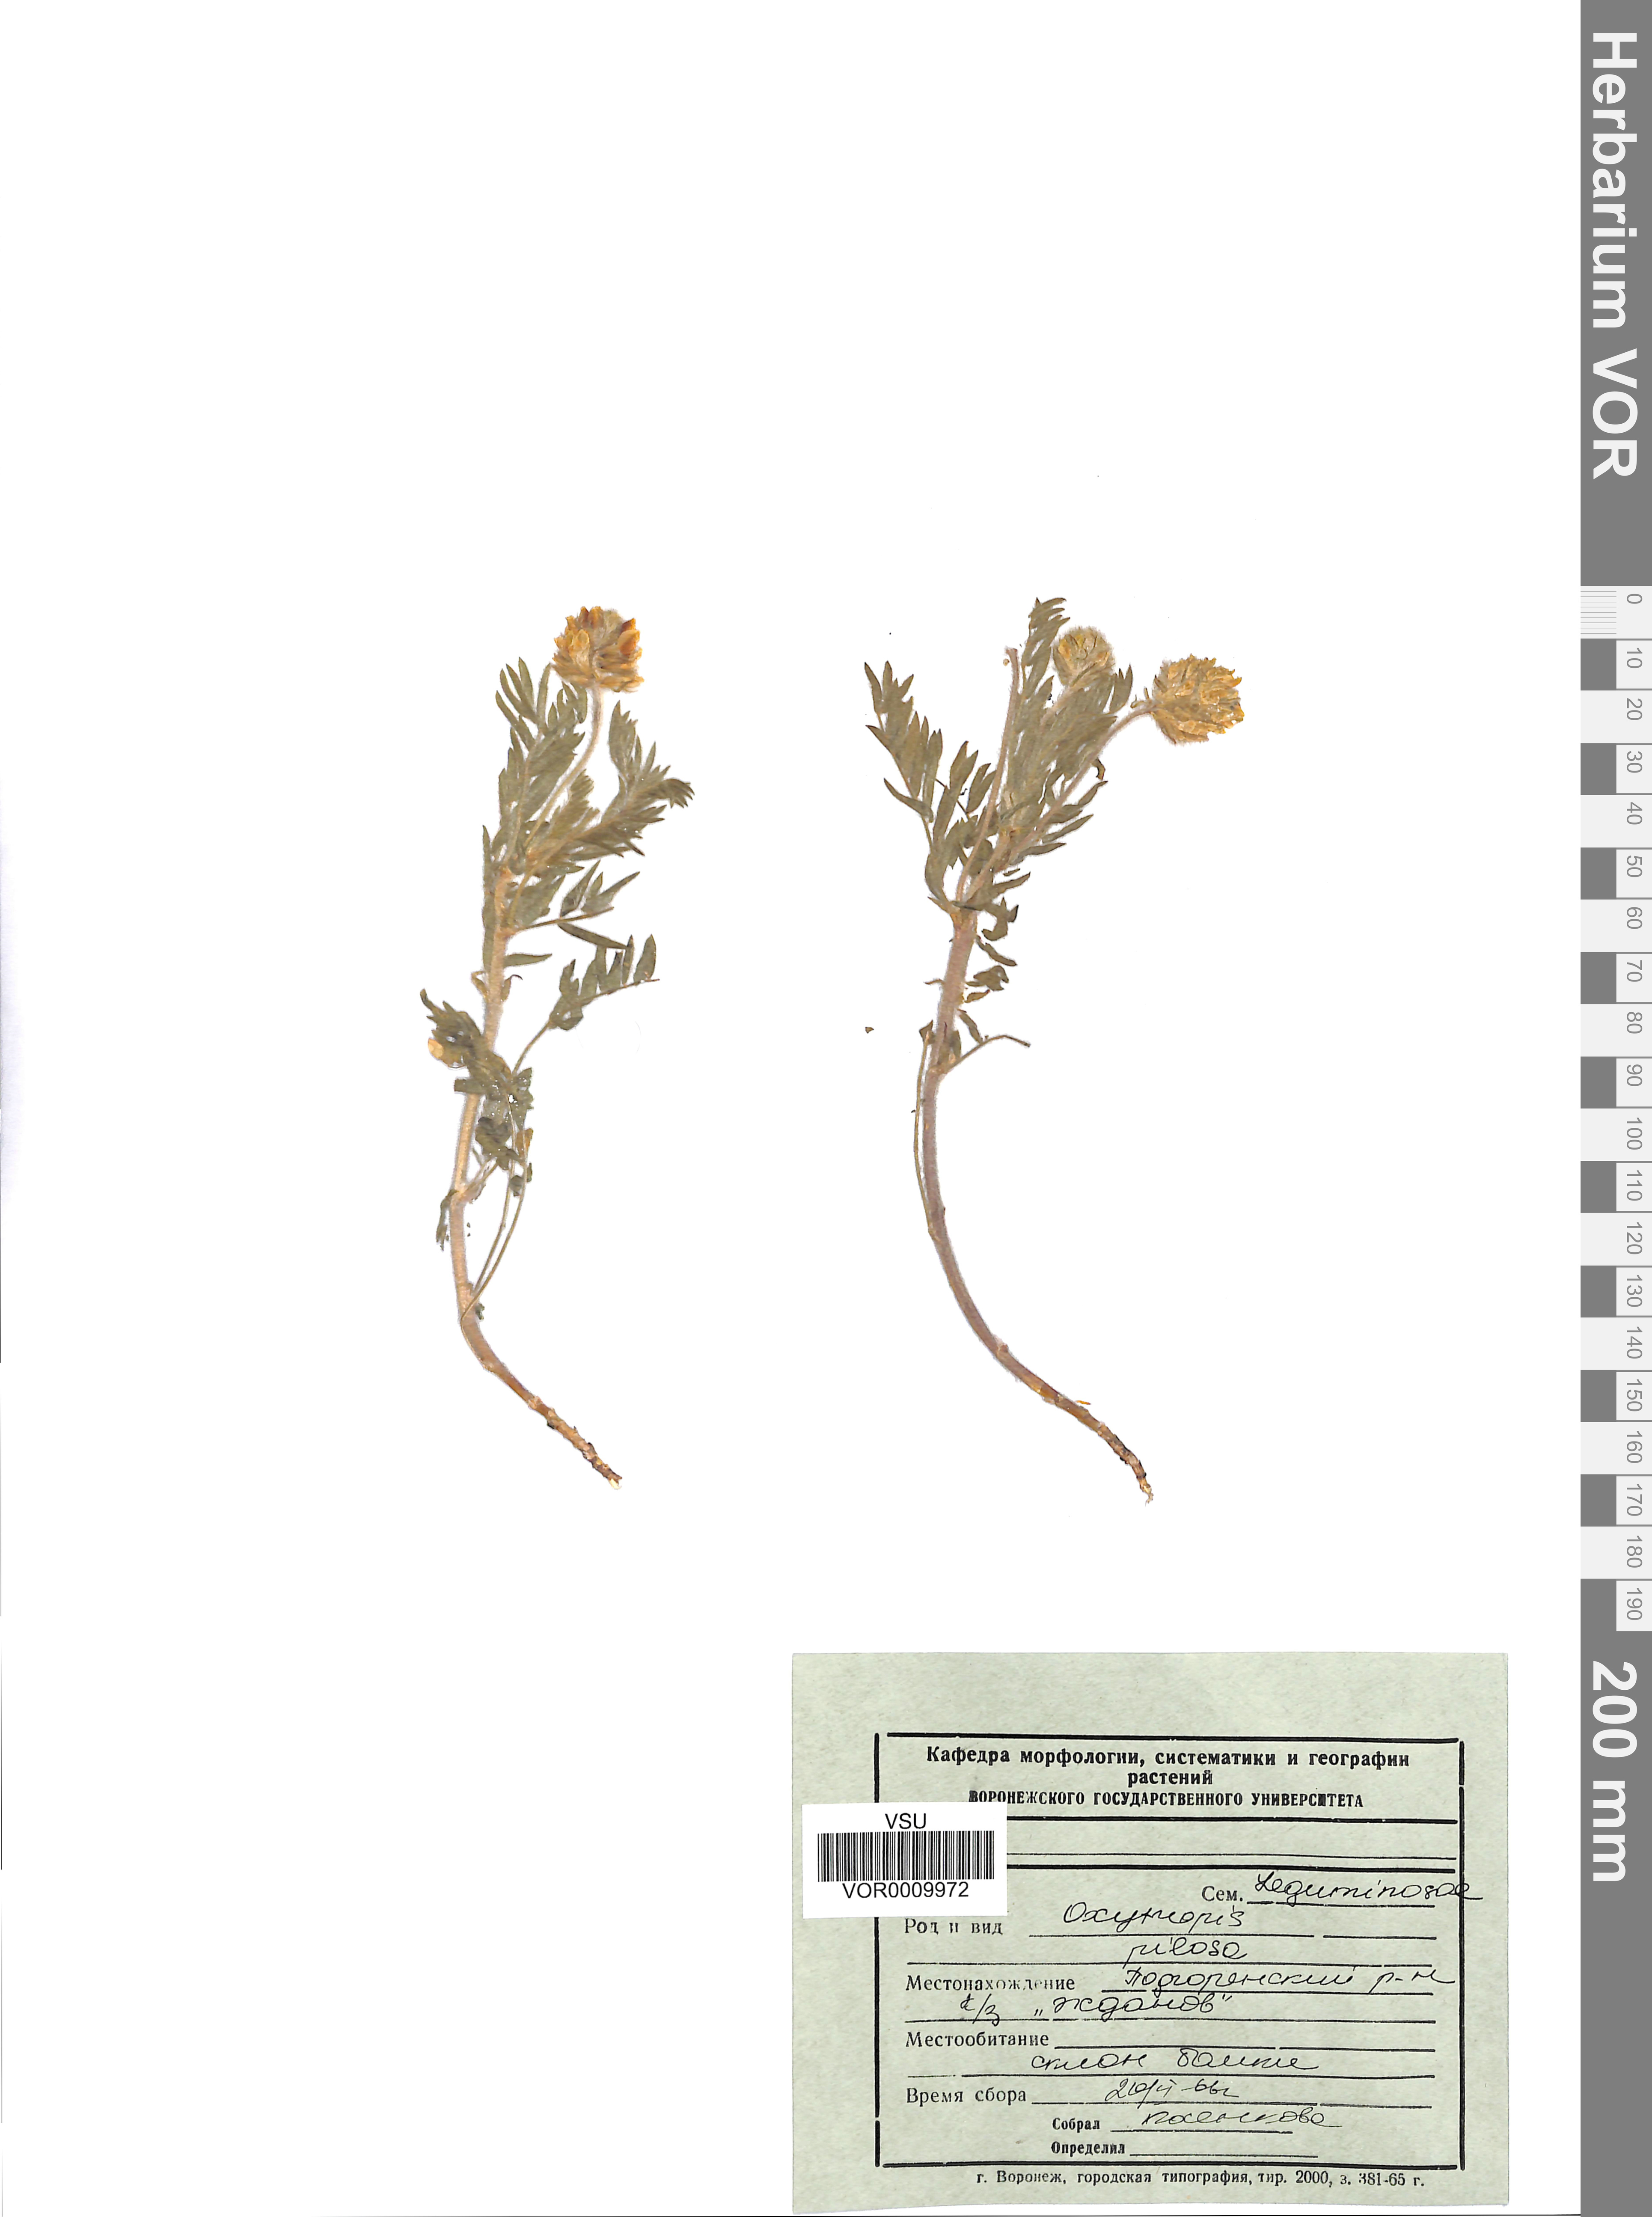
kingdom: Plantae
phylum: Tracheophyta
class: Magnoliopsida
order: Fabales
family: Fabaceae
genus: Oxytropis
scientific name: Oxytropis pilosa
